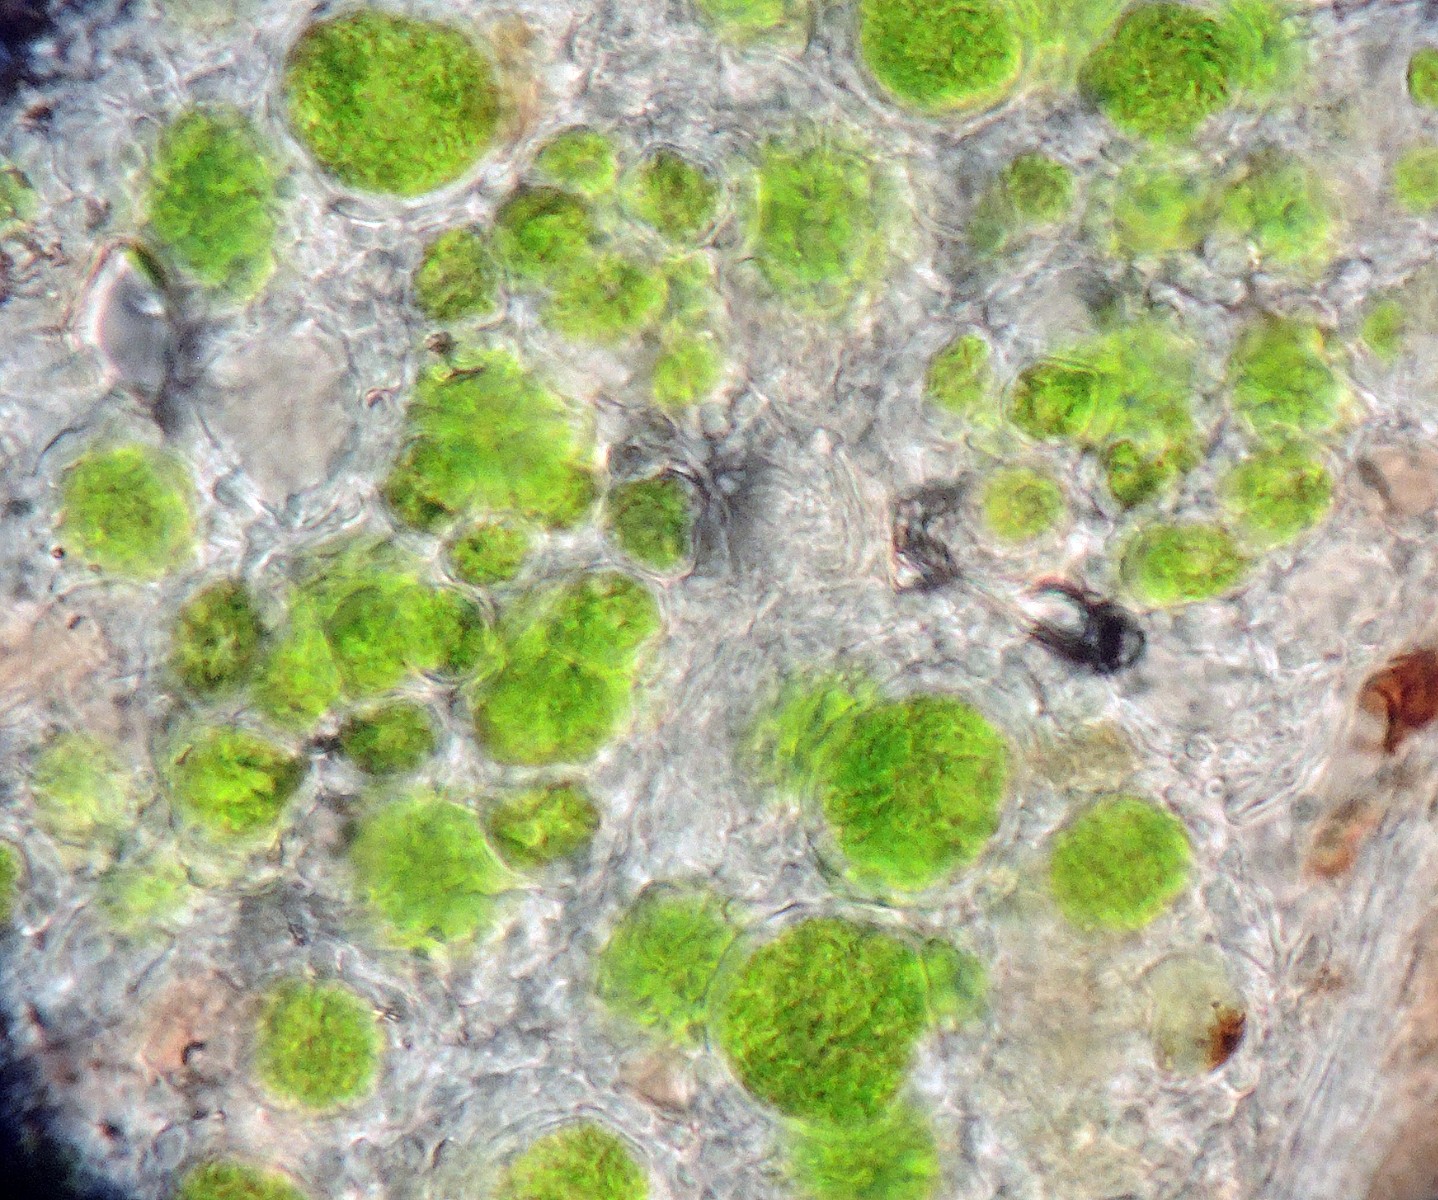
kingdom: Fungi
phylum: Ascomycota
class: Coniocybomycetes
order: Coniocybales
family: Coniocybaceae
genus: Chaenotheca
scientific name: Chaenotheca ferruginea
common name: rustbrun knappenålslav
